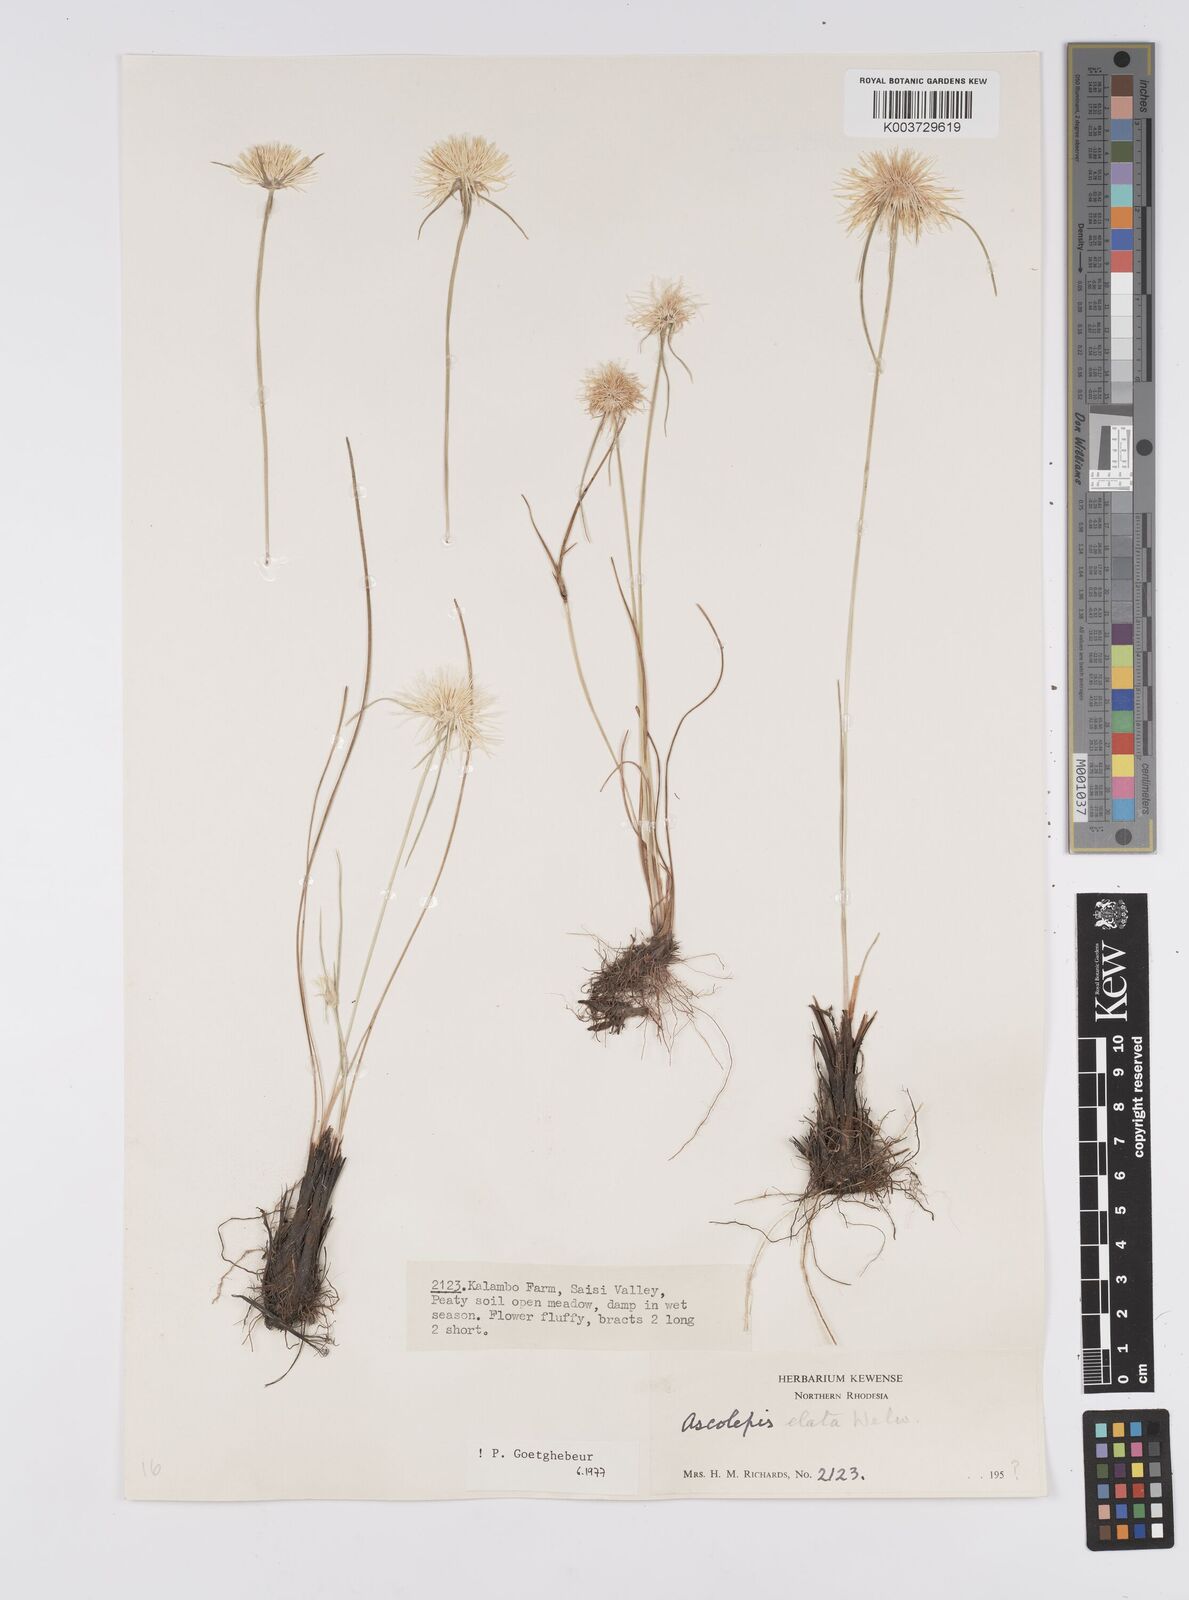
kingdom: Plantae
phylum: Tracheophyta
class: Liliopsida
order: Poales
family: Cyperaceae
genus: Cyperus
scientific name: Cyperus
